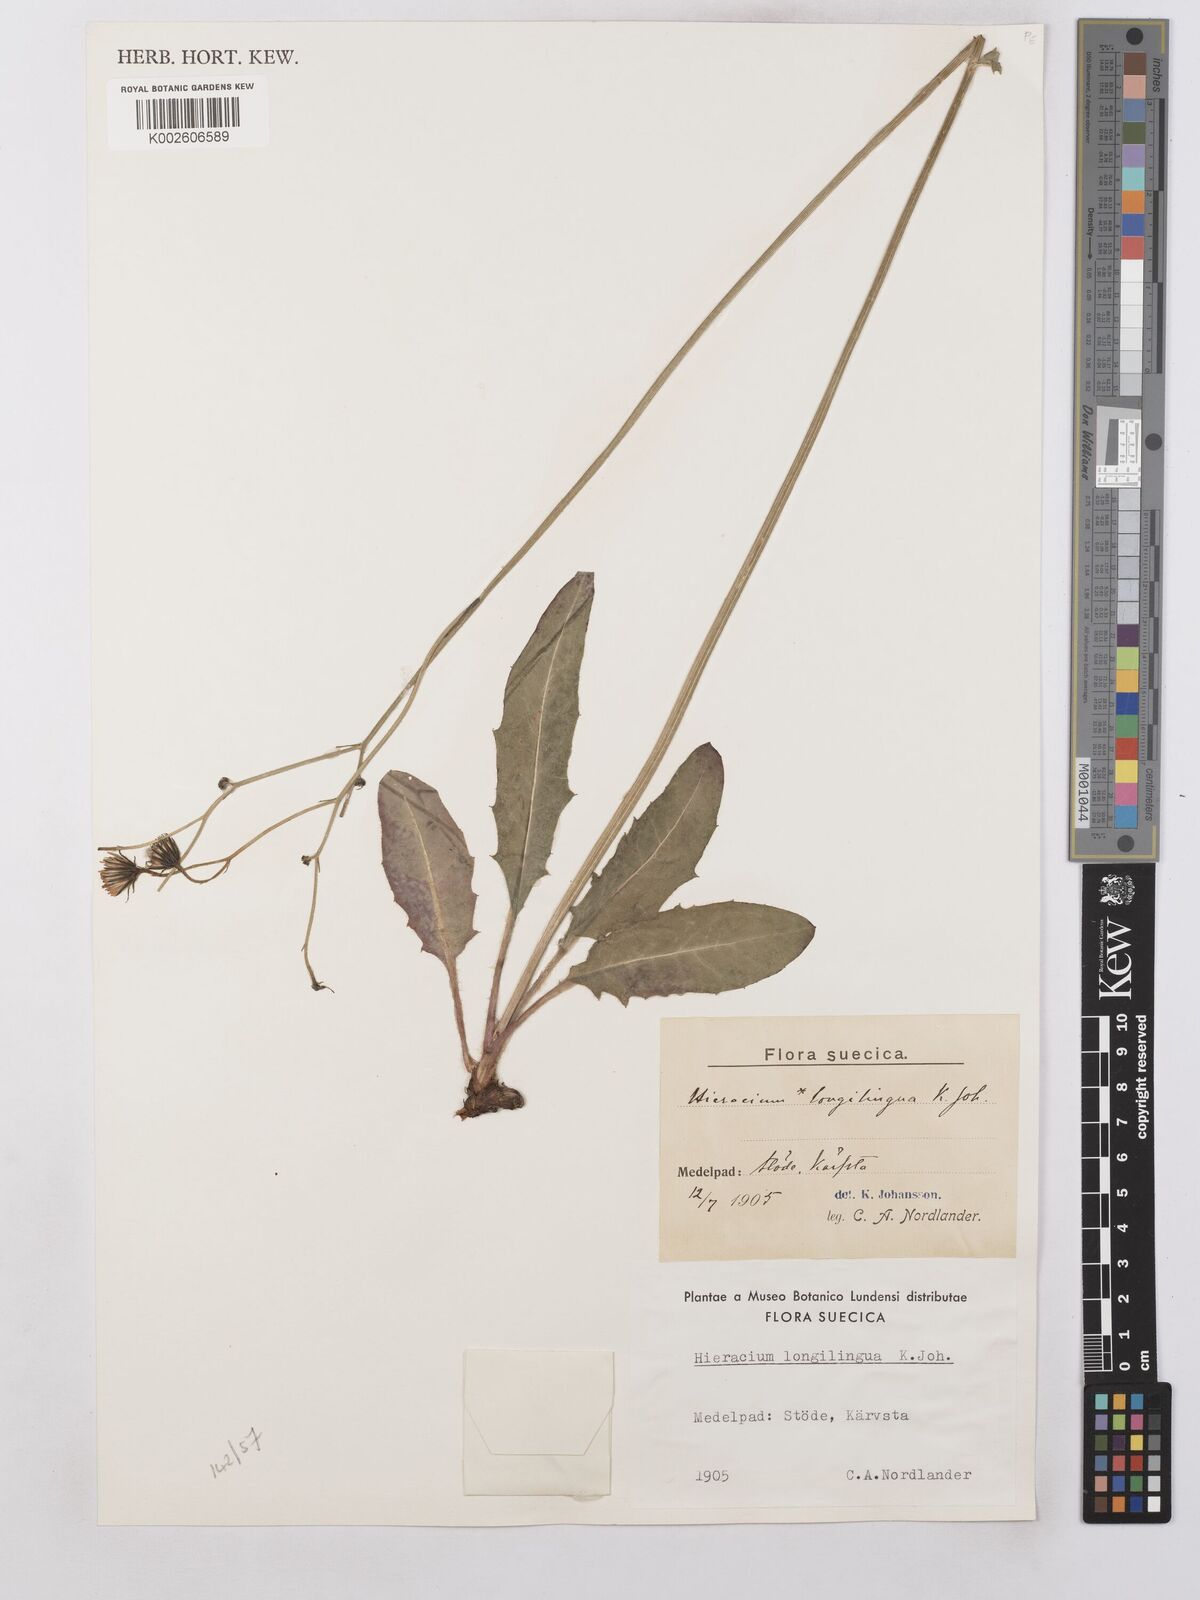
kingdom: Plantae
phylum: Tracheophyta
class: Magnoliopsida
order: Asterales
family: Asteraceae
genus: Hieracium
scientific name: Hieracium lachenalii
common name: Common hawkweed
